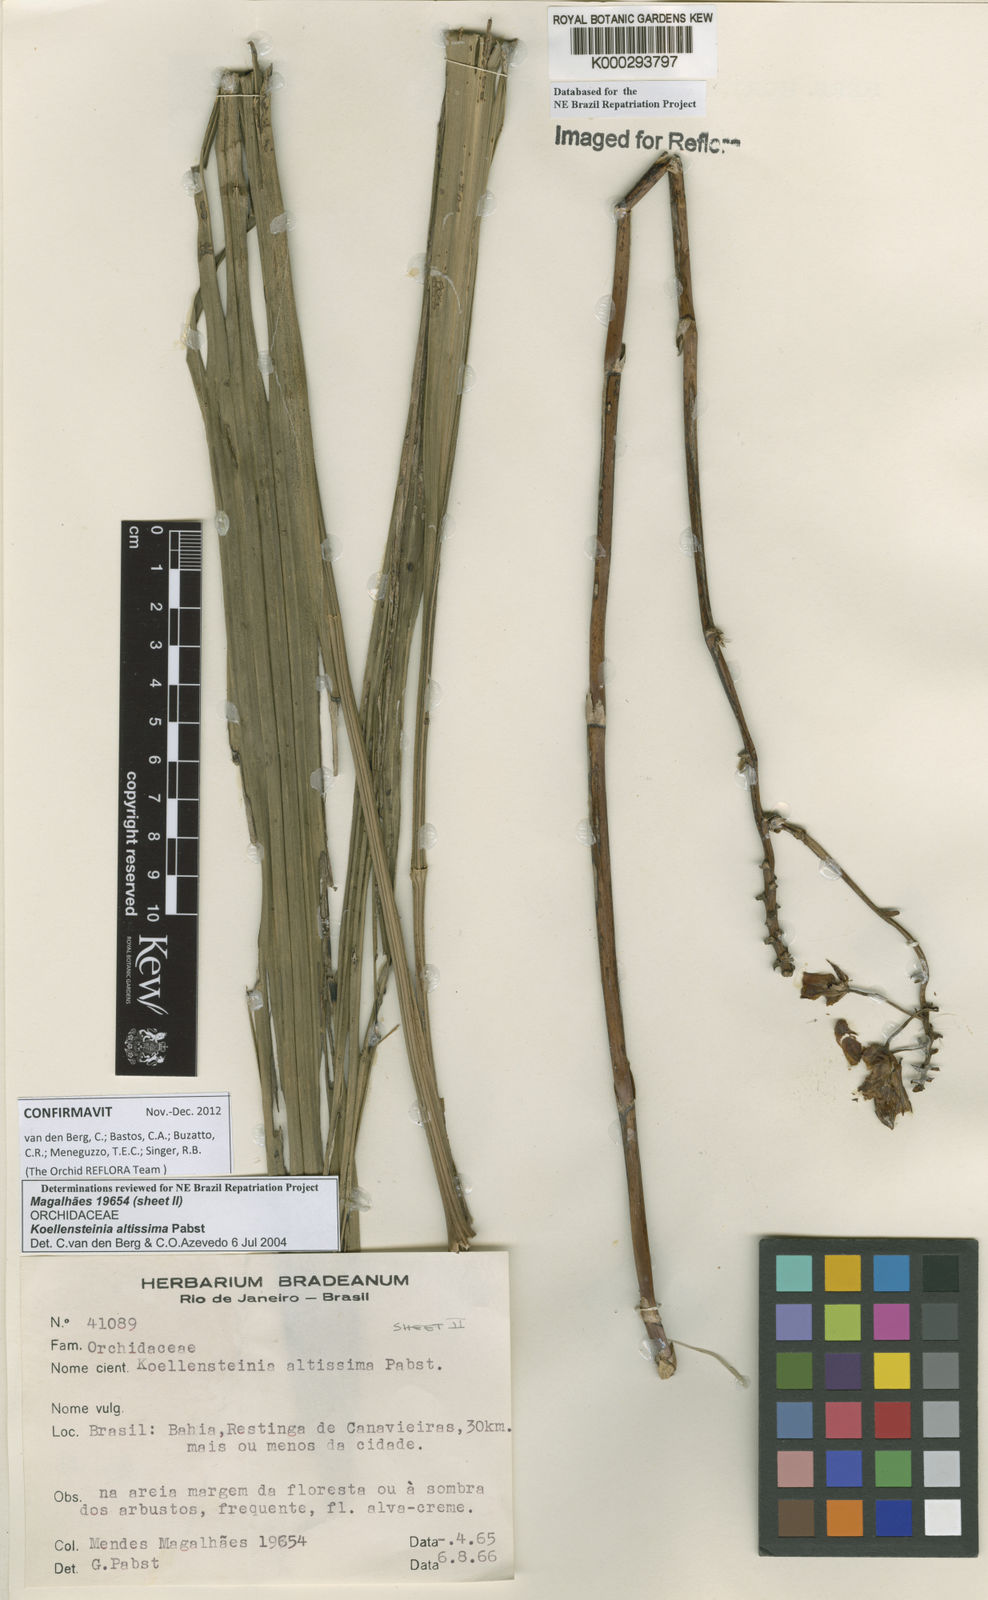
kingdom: Plantae
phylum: Tracheophyta
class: Liliopsida
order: Asparagales
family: Orchidaceae
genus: Koellensteinia
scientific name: Koellensteinia florida
